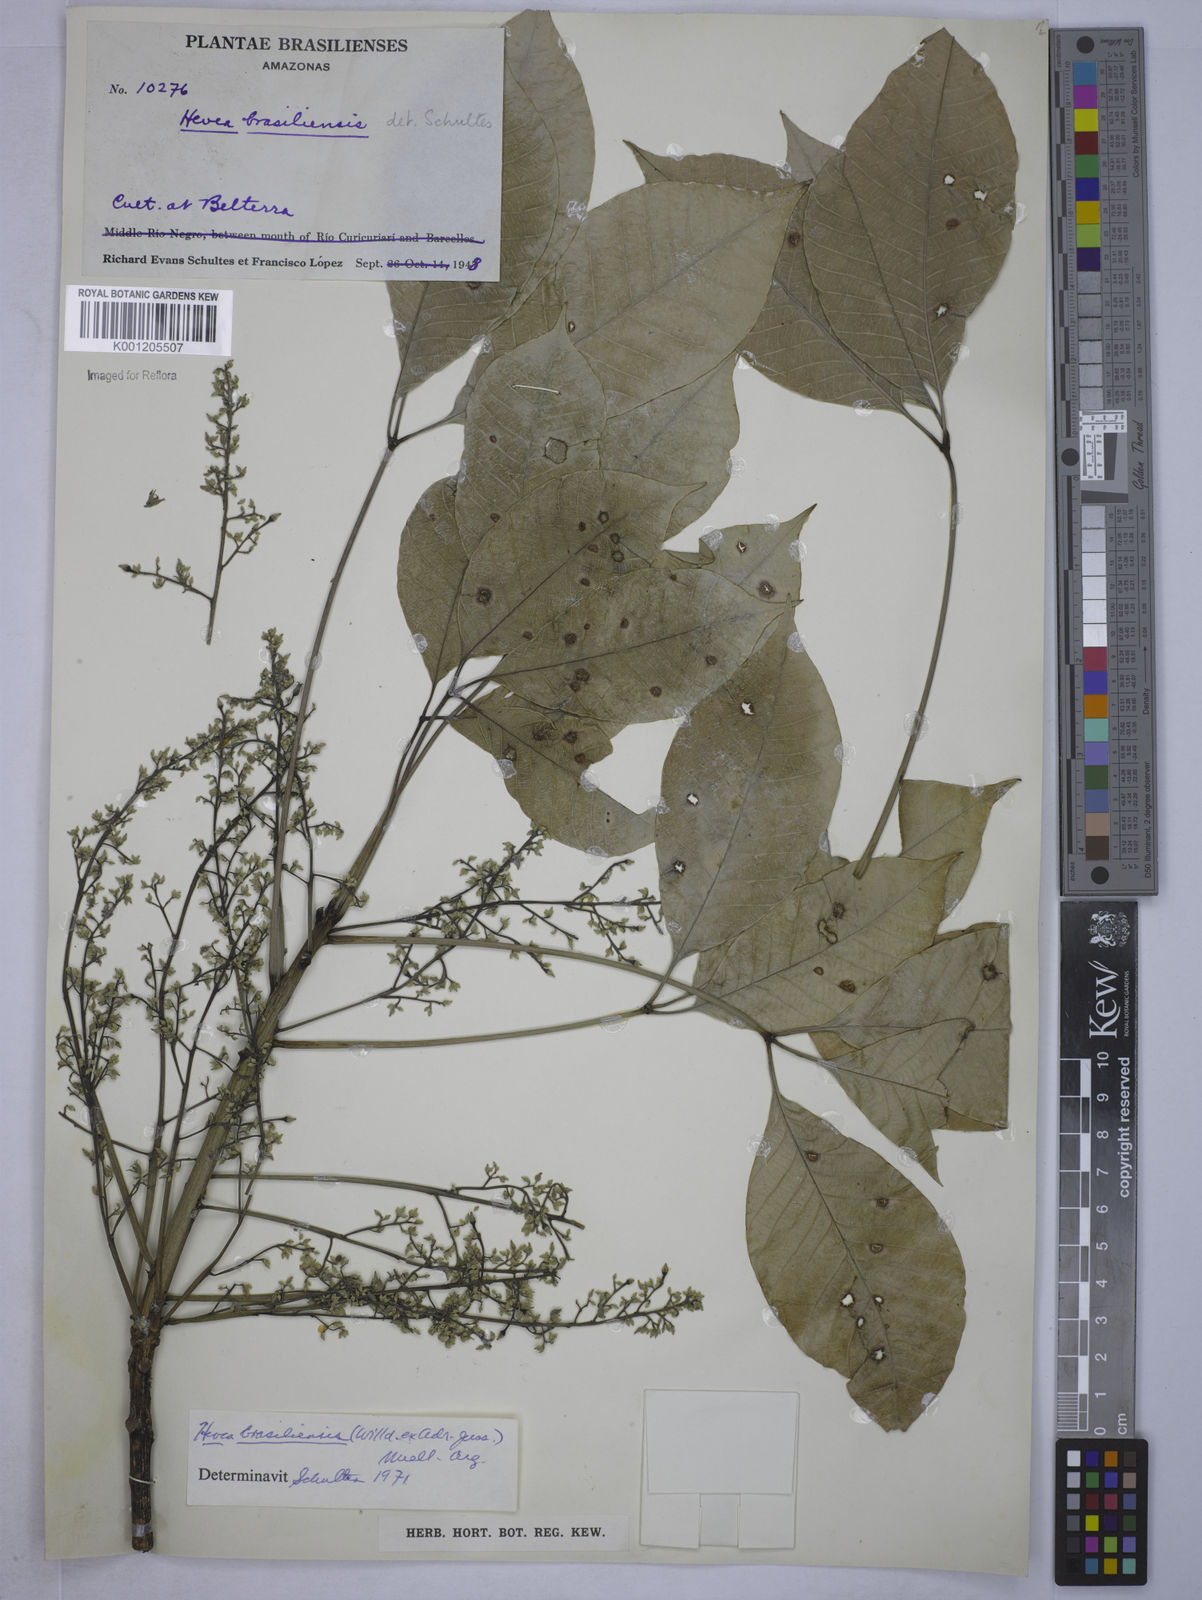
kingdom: Plantae
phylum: Tracheophyta
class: Magnoliopsida
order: Malpighiales
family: Euphorbiaceae
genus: Hevea
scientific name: Hevea
